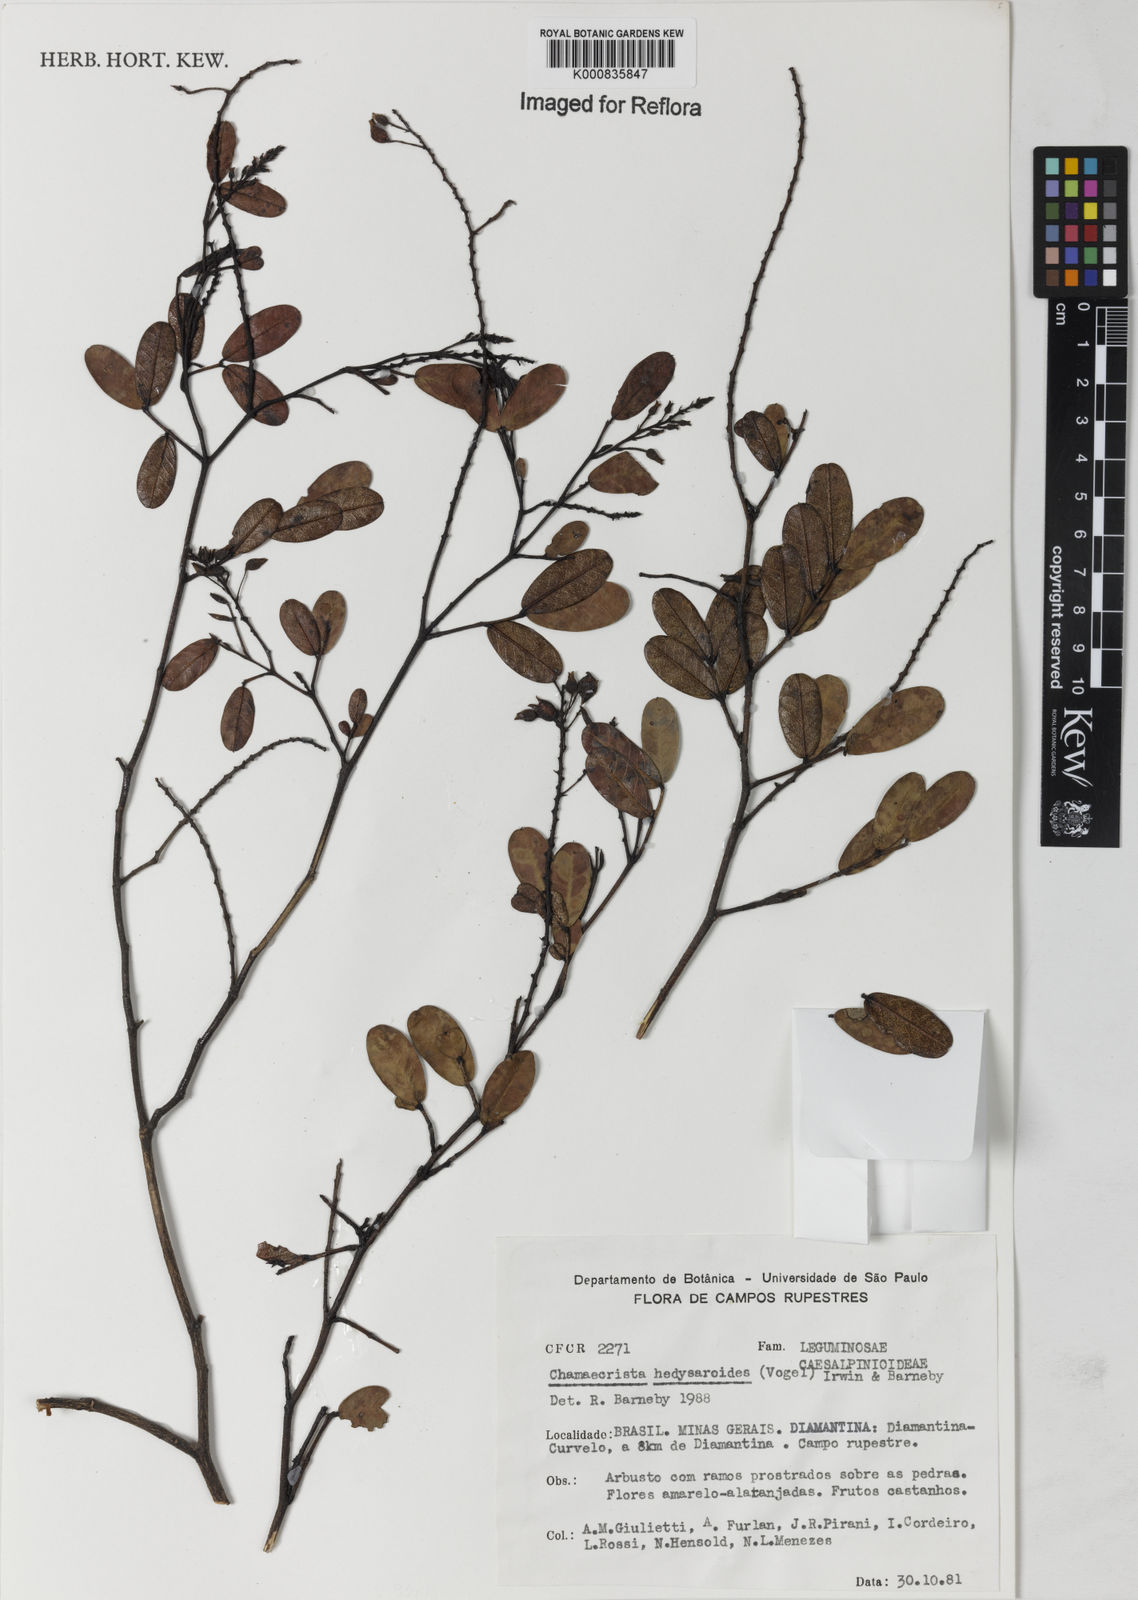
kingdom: Plantae
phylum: Tracheophyta
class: Magnoliopsida
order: Fabales
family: Fabaceae
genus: Chamaecrista
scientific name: Chamaecrista hedysaroides
